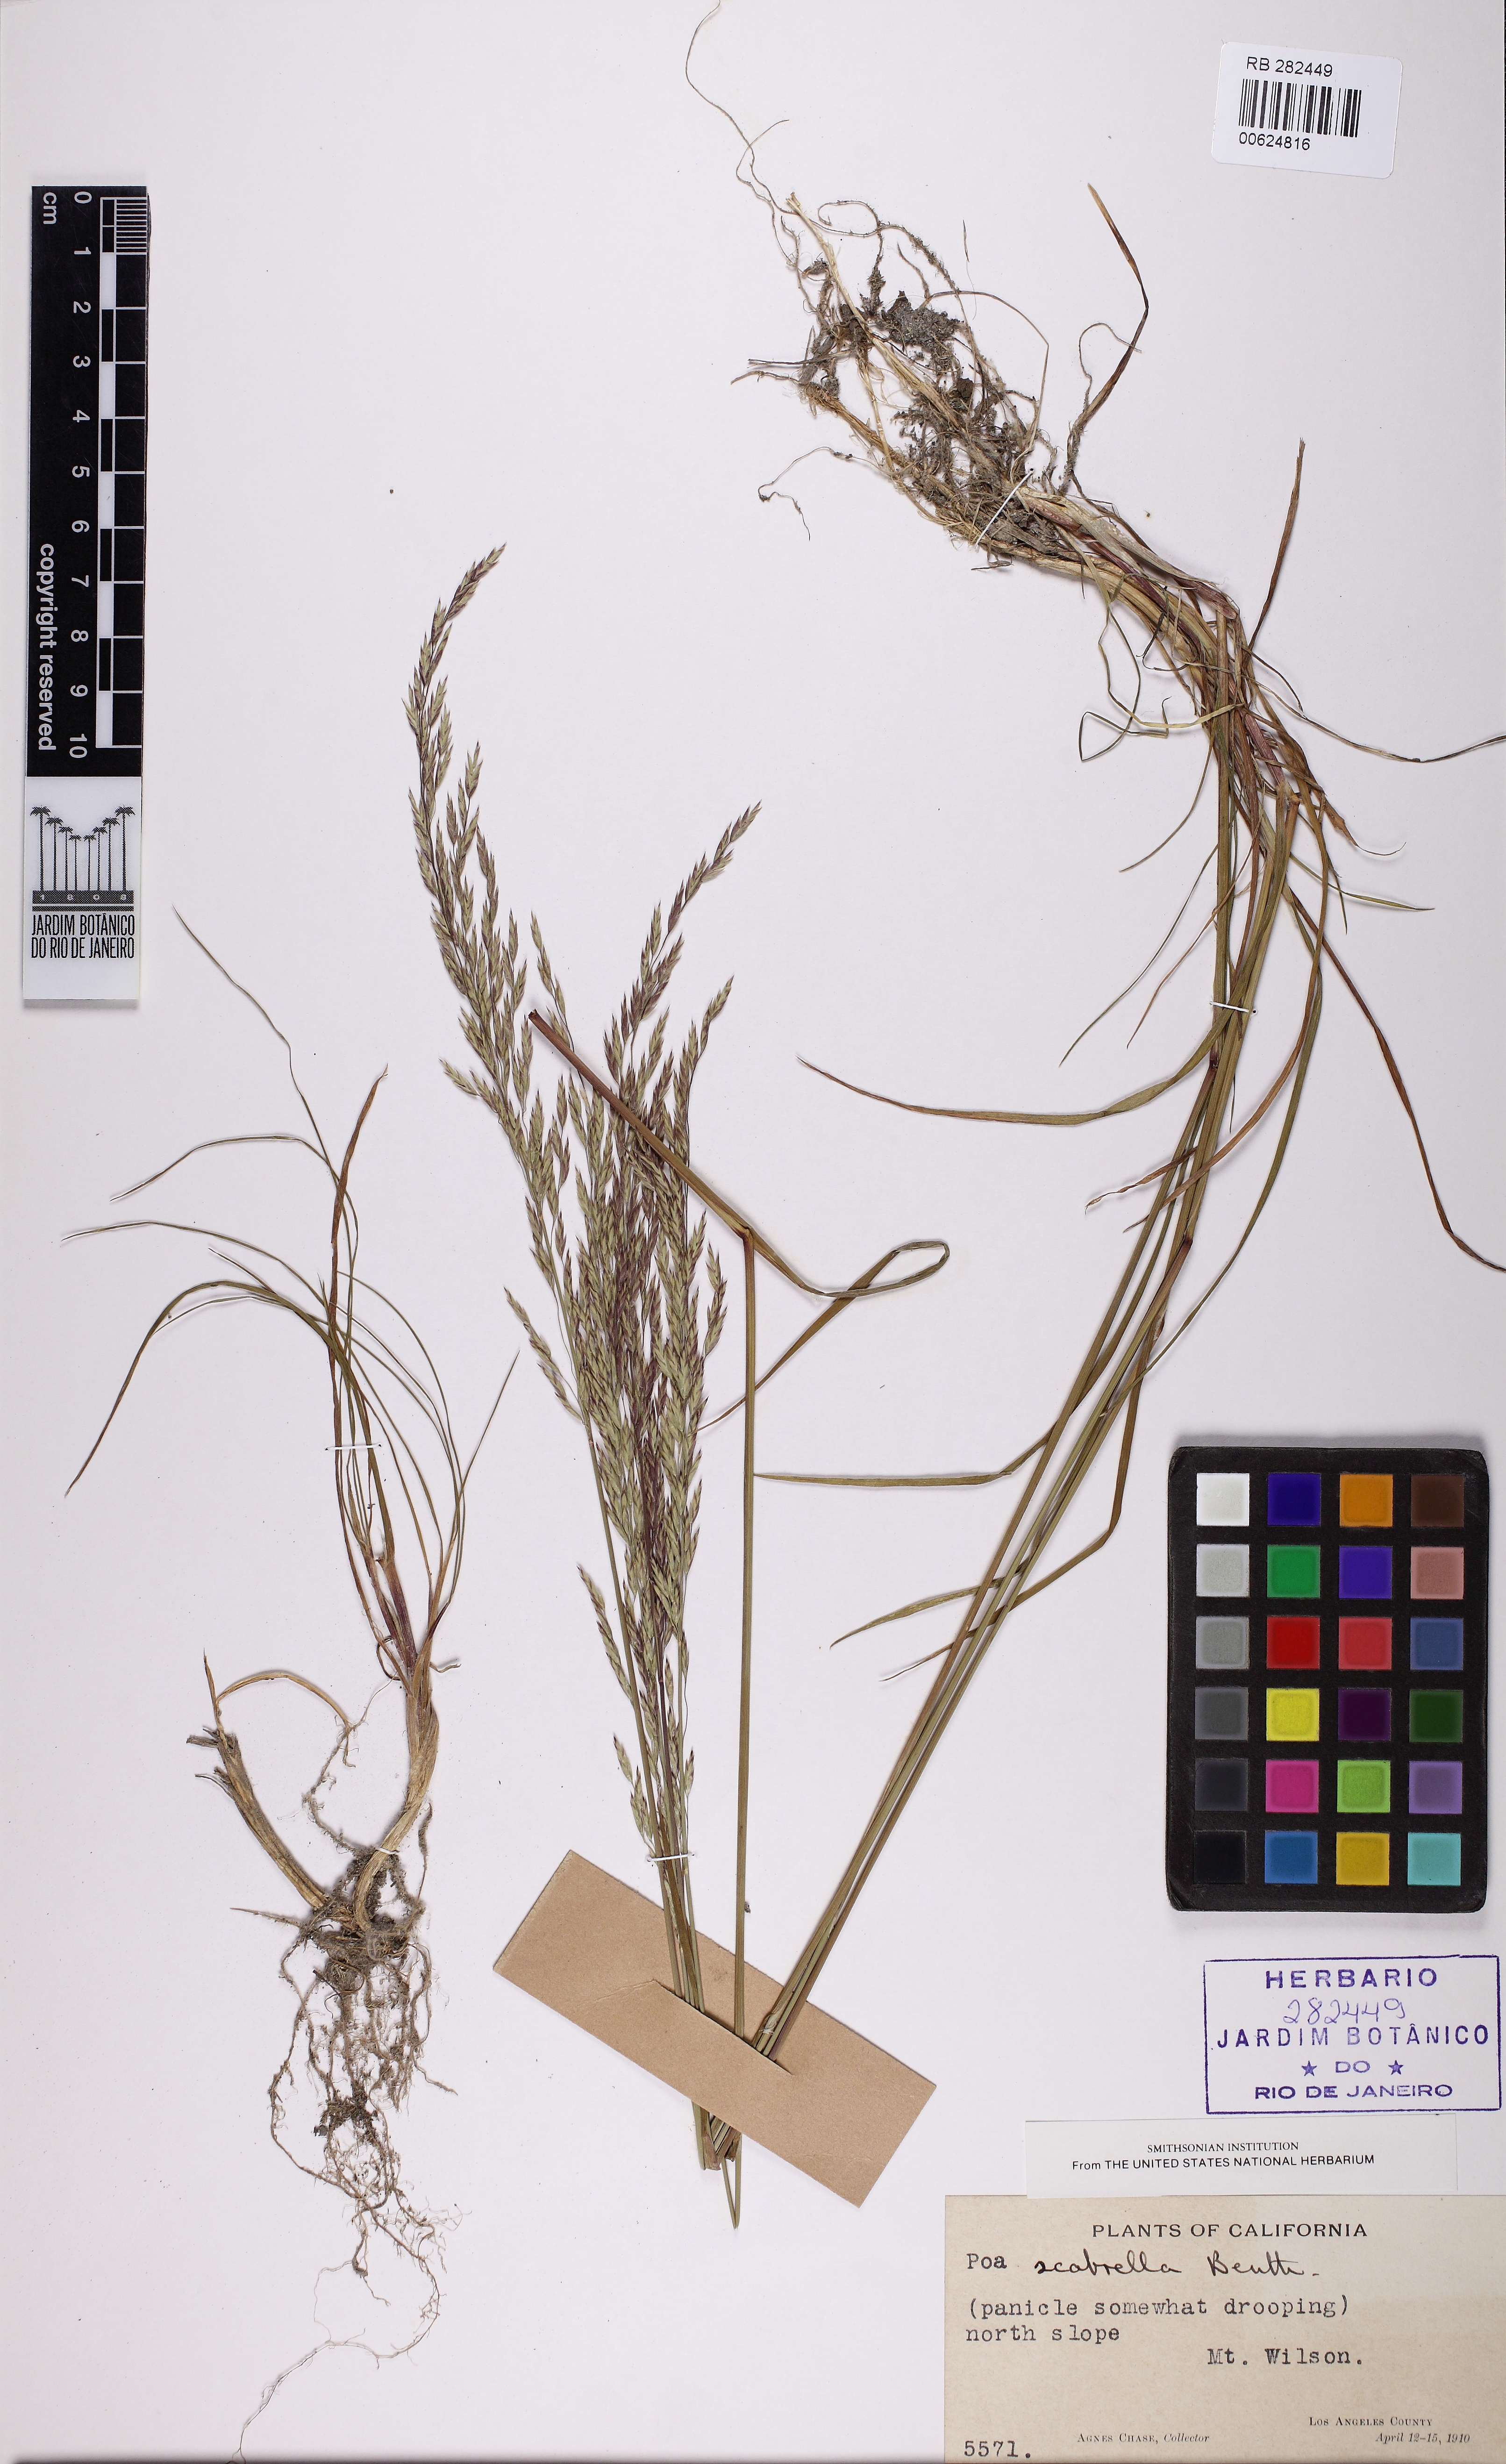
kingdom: Plantae
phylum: Tracheophyta
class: Liliopsida
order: Poales
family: Poaceae
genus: Poa
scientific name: Poa secunda
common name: Sandberg bluegrass
